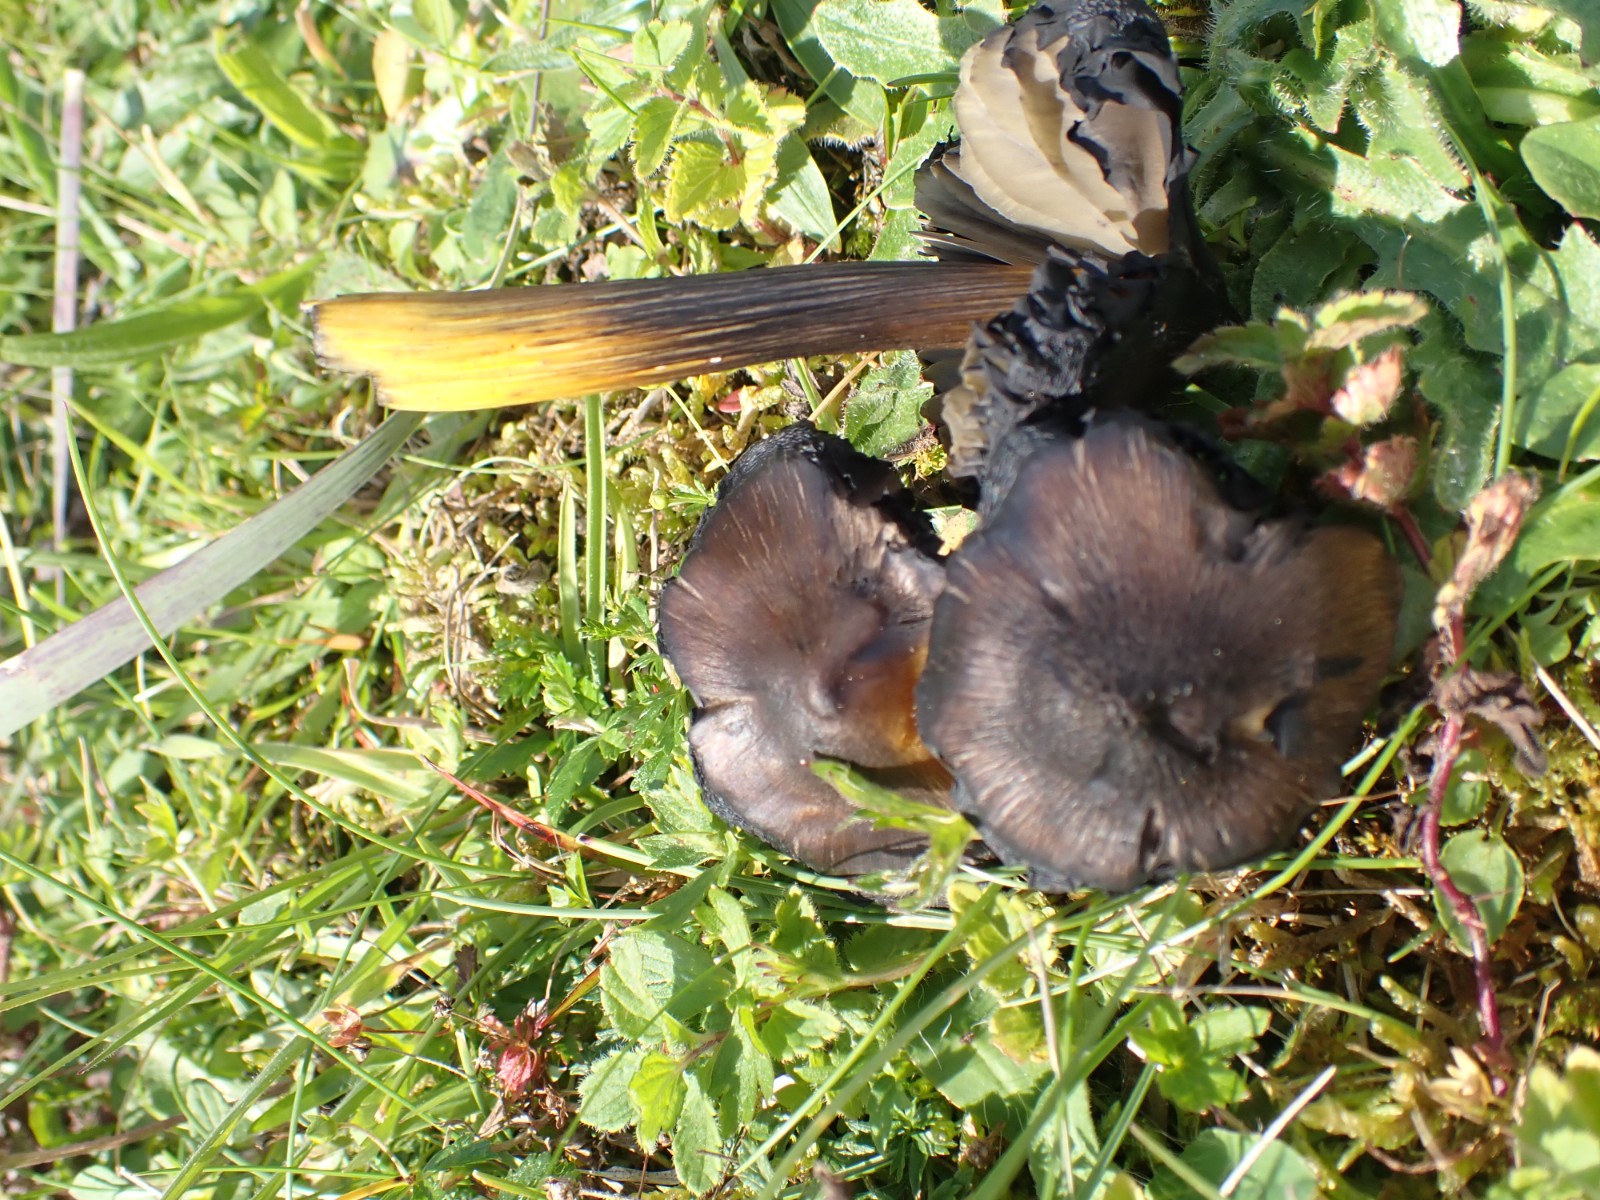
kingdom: Fungi
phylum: Basidiomycota
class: Agaricomycetes
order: Agaricales
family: Hygrophoraceae
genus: Hygrocybe
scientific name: Hygrocybe conica
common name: kegle-vokshat
